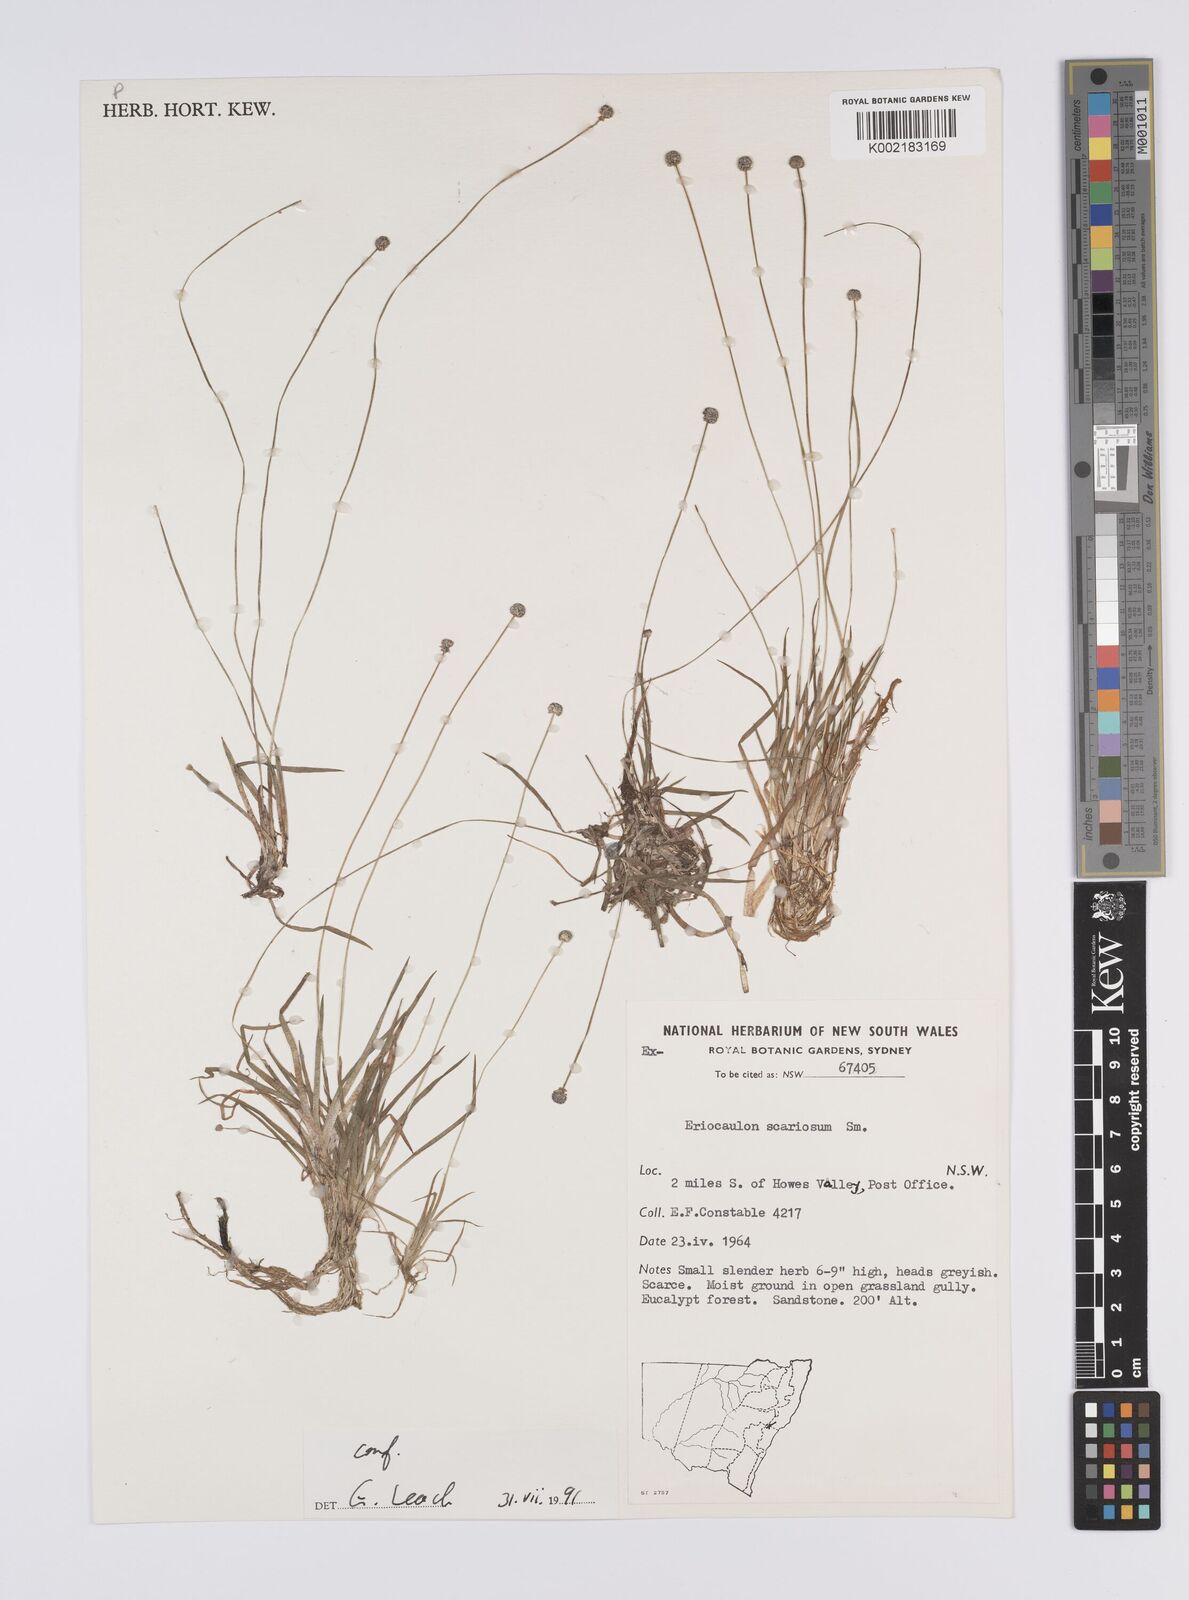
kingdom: Plantae
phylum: Tracheophyta
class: Liliopsida
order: Poales
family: Eriocaulaceae
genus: Eriocaulon
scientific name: Eriocaulon scariosum
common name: Rough pipewort
